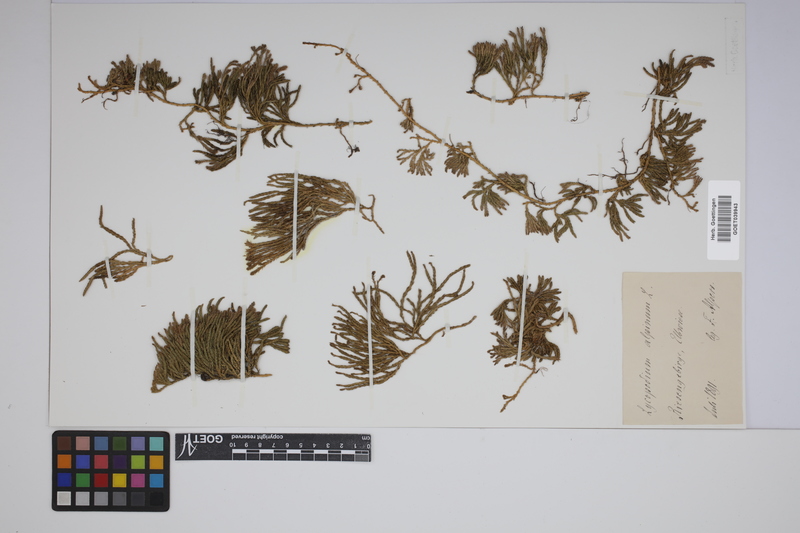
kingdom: Plantae
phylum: Tracheophyta
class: Lycopodiopsida
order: Lycopodiales
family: Lycopodiaceae
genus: Diphasiastrum
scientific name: Diphasiastrum alpinum
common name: Alpine clubmoss
